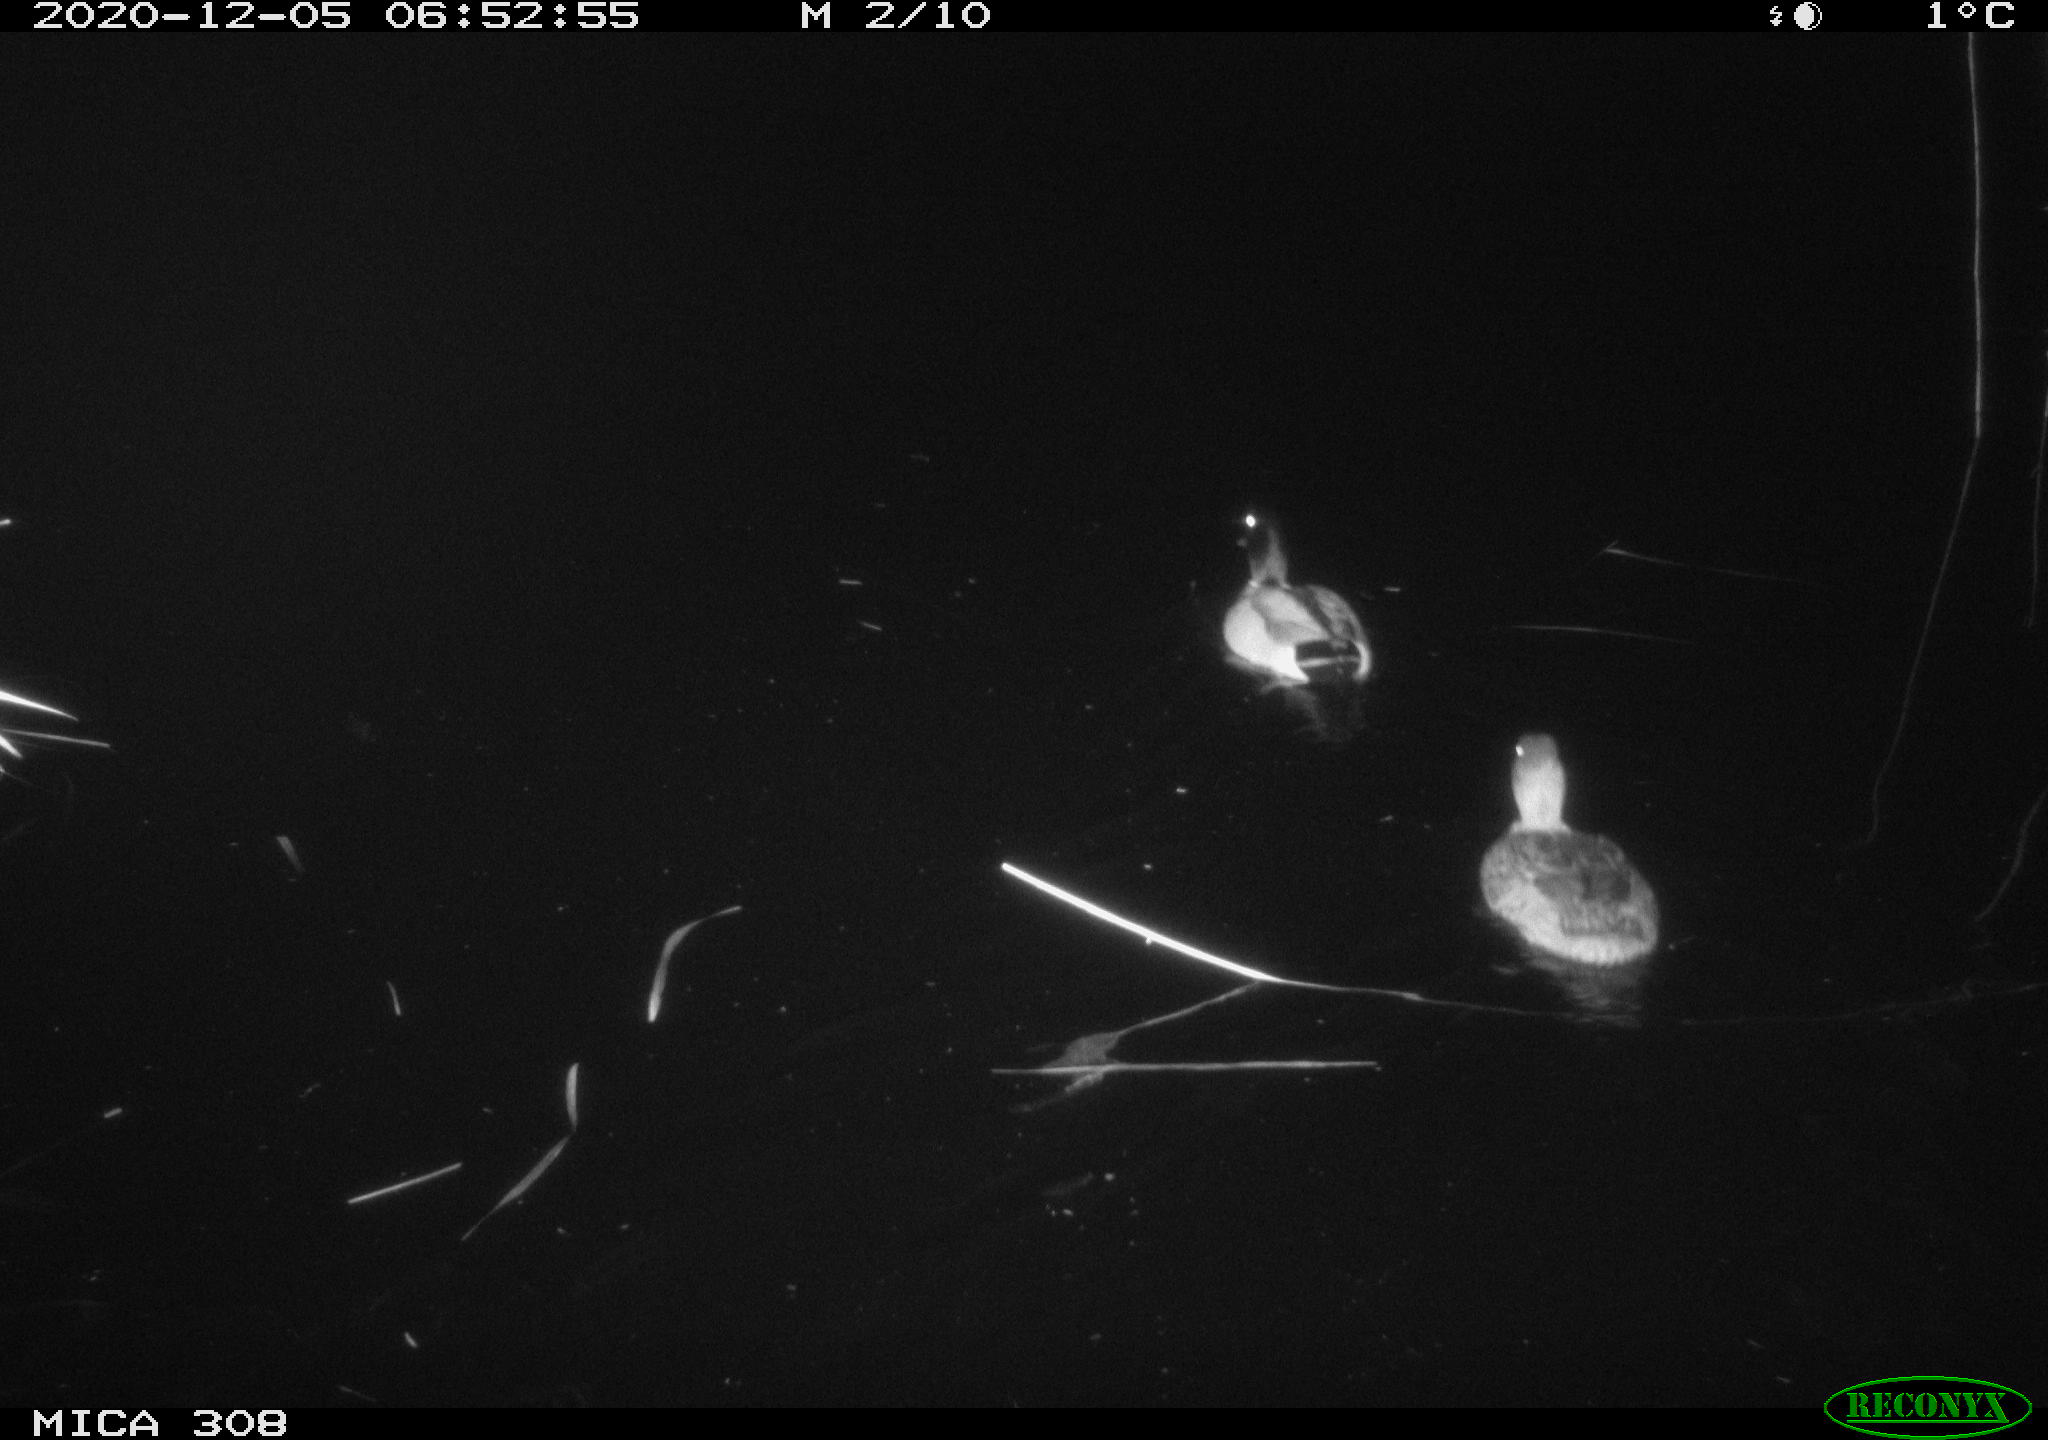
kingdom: Animalia
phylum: Chordata
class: Aves
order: Anseriformes
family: Anatidae
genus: Anas
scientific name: Anas platyrhynchos
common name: Mallard
